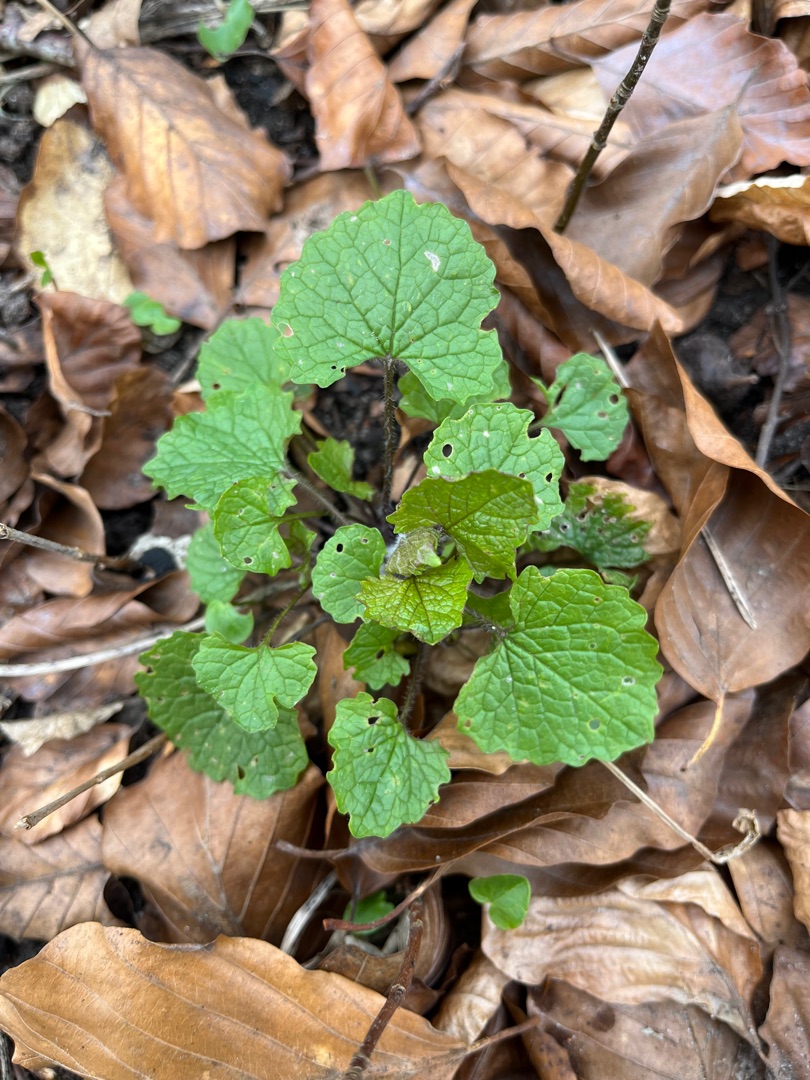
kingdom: Plantae
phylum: Tracheophyta
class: Magnoliopsida
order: Brassicales
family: Brassicaceae
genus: Alliaria
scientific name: Alliaria petiolata
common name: Løgkarse
